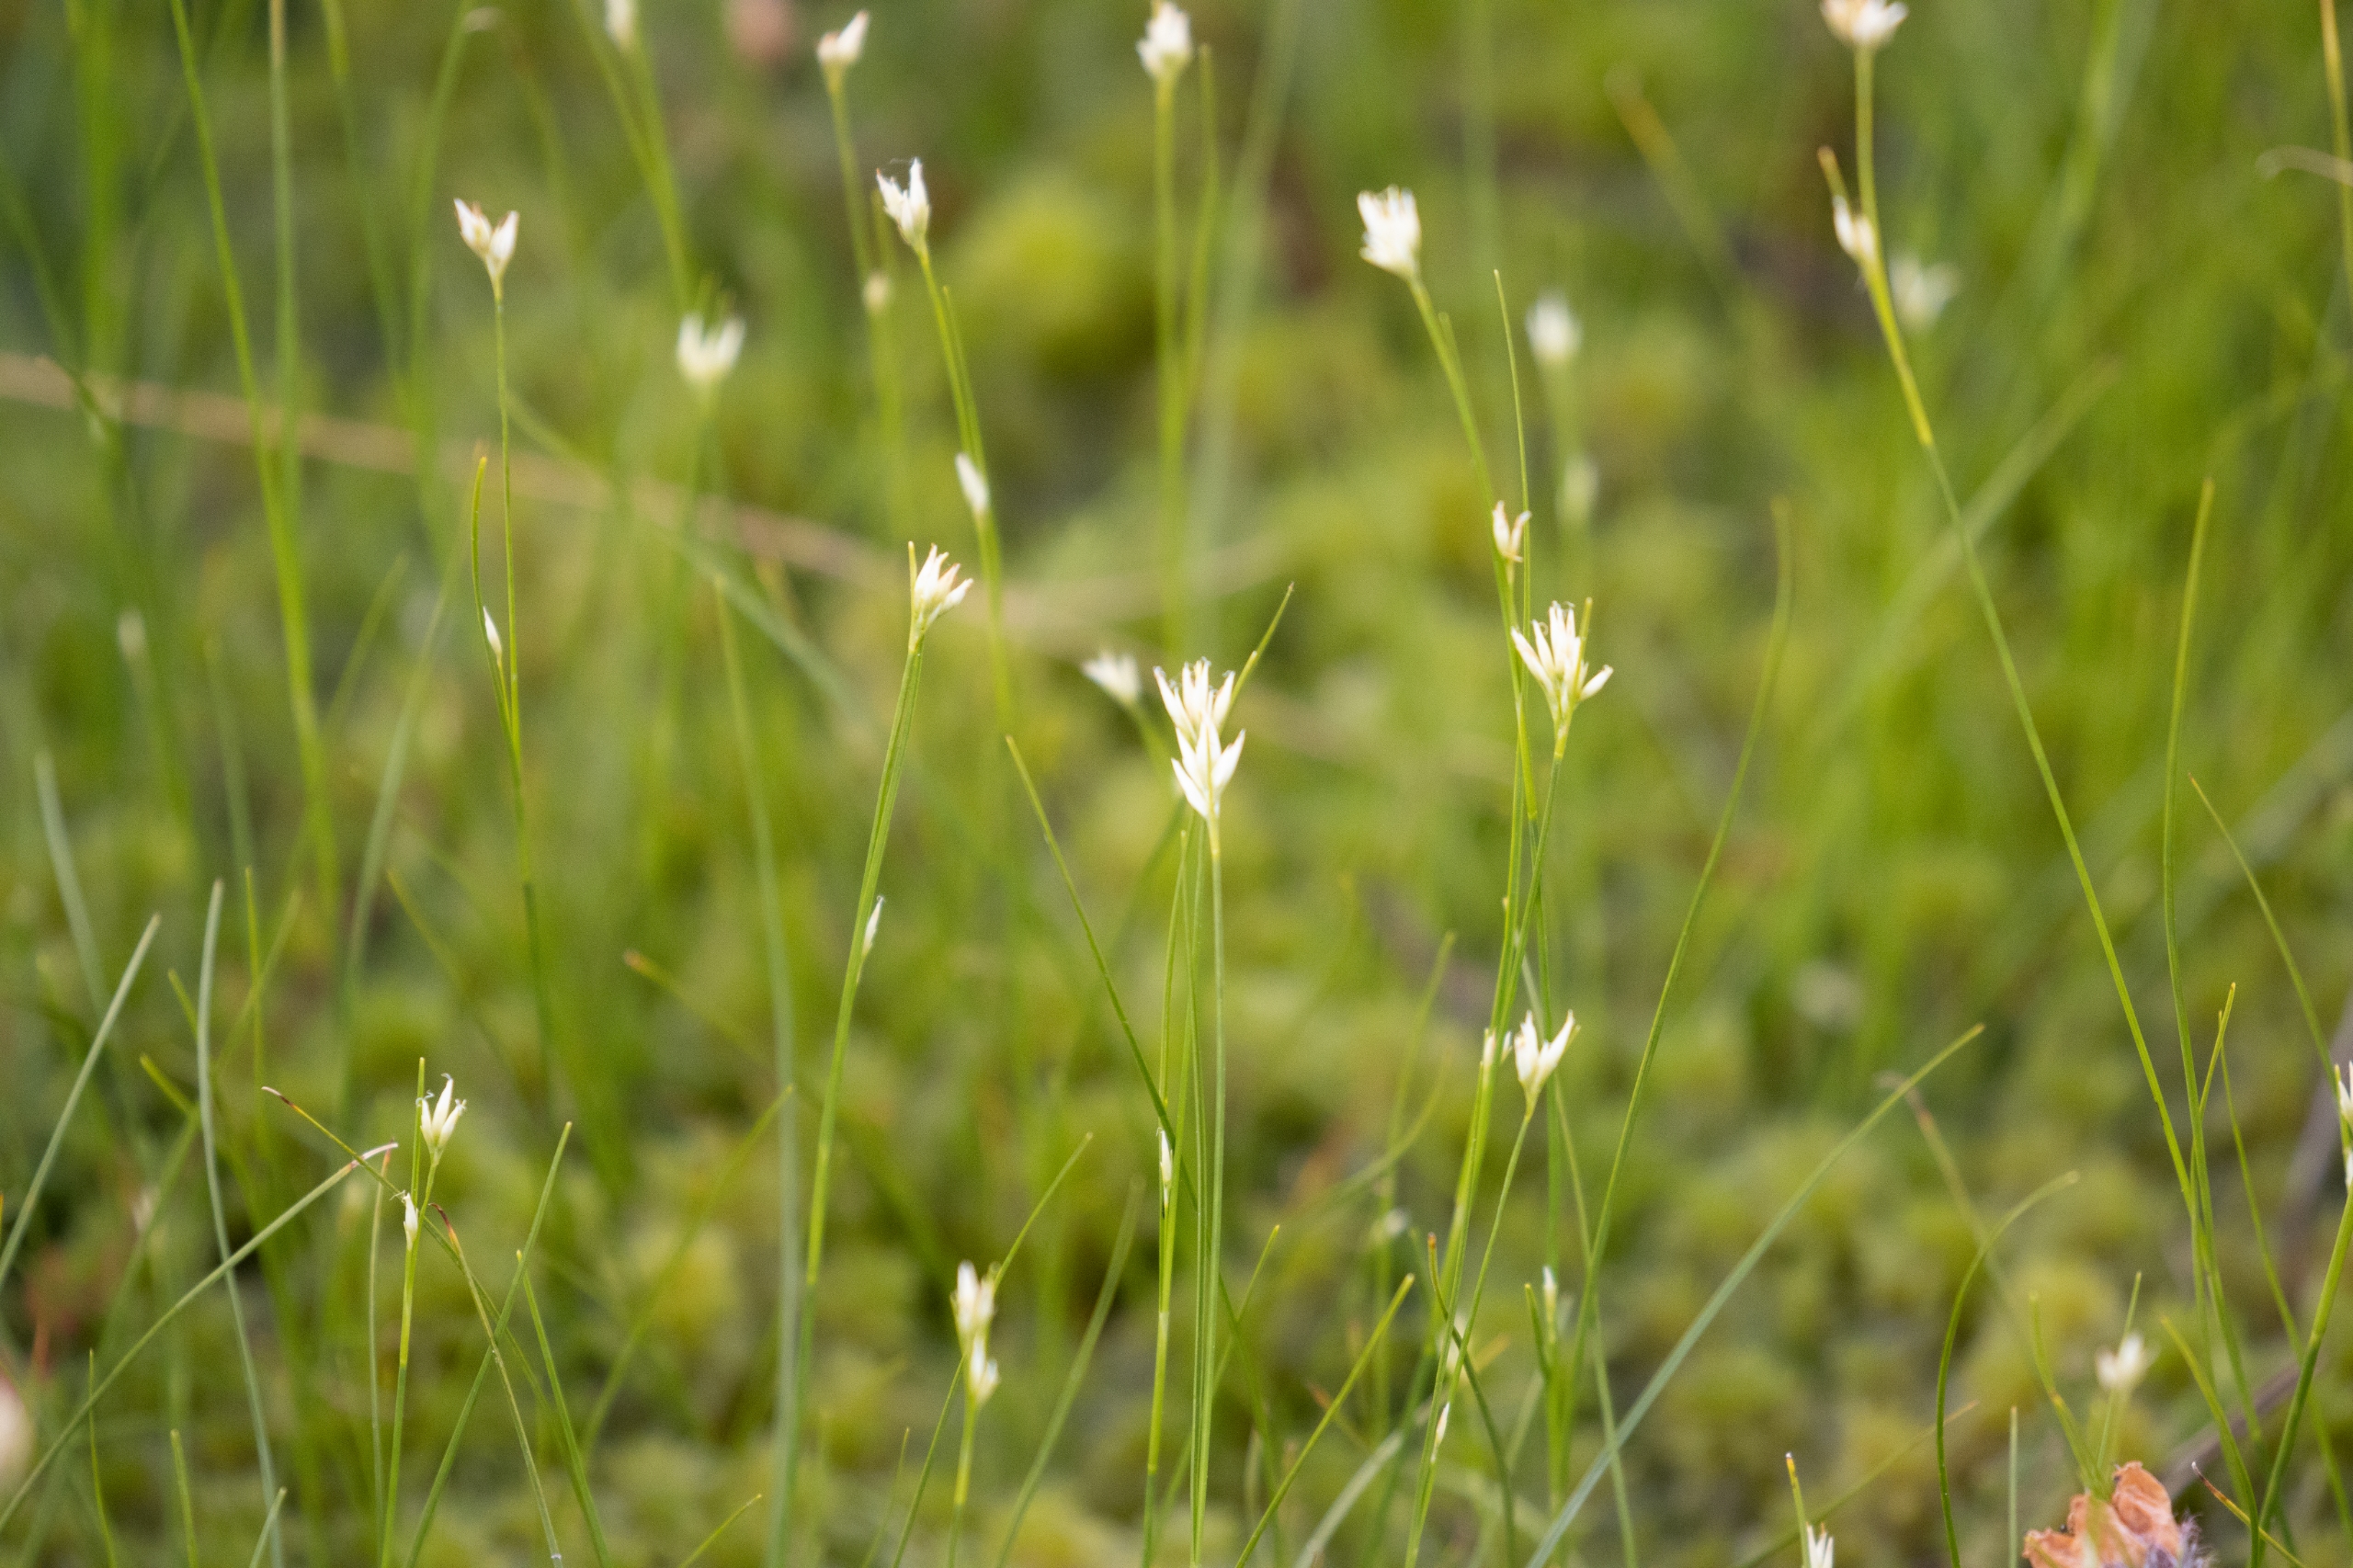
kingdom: Plantae
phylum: Tracheophyta
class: Liliopsida
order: Poales
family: Cyperaceae
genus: Rhynchospora
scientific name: Rhynchospora alba
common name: Hvid næbfrø
